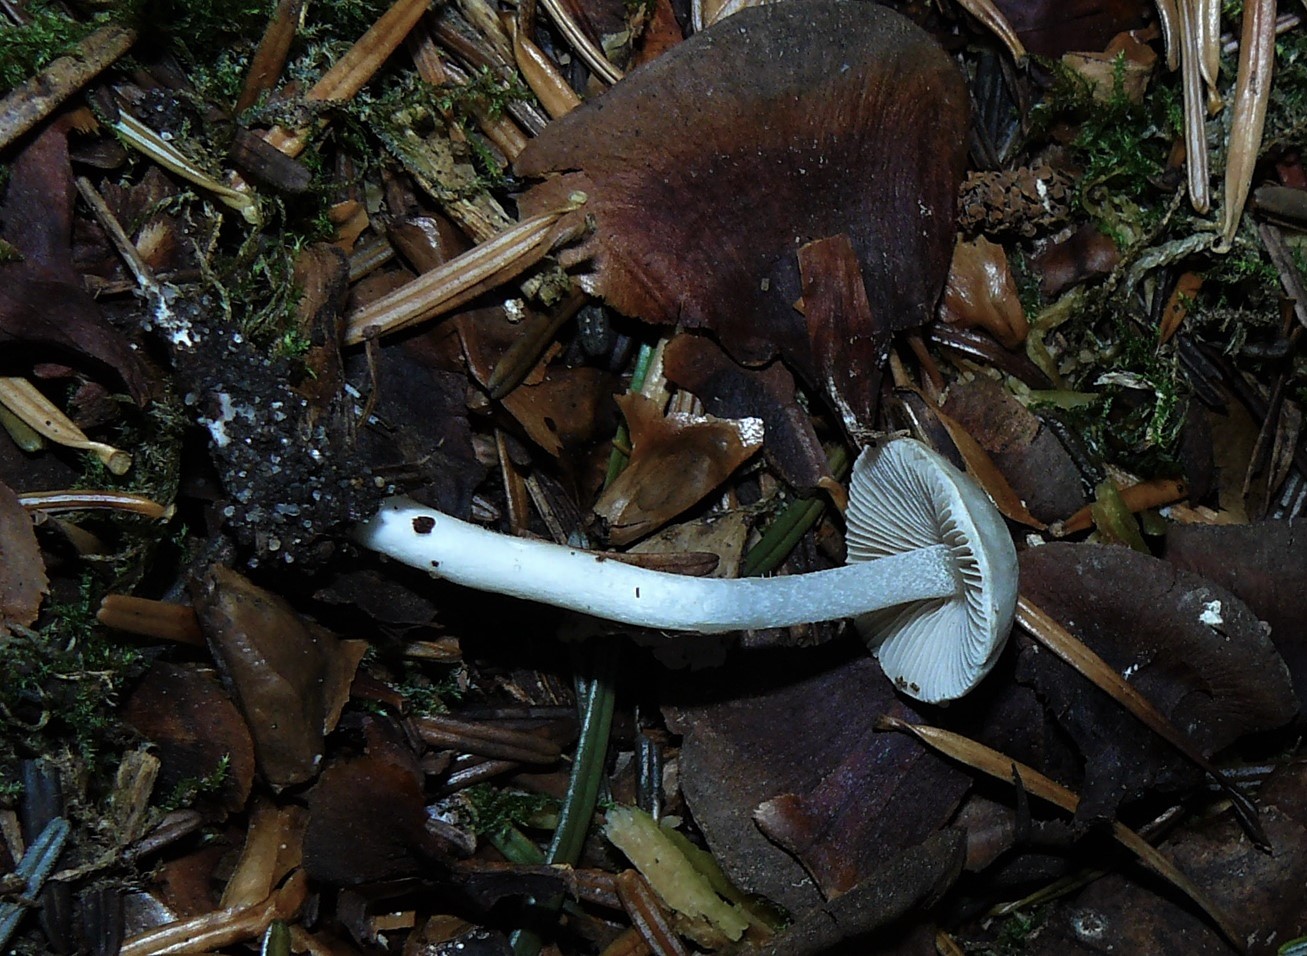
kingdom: Fungi
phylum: Basidiomycota
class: Agaricomycetes
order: Agaricales
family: Inocybaceae
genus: Inocybe
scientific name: Inocybe
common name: trævlhat
